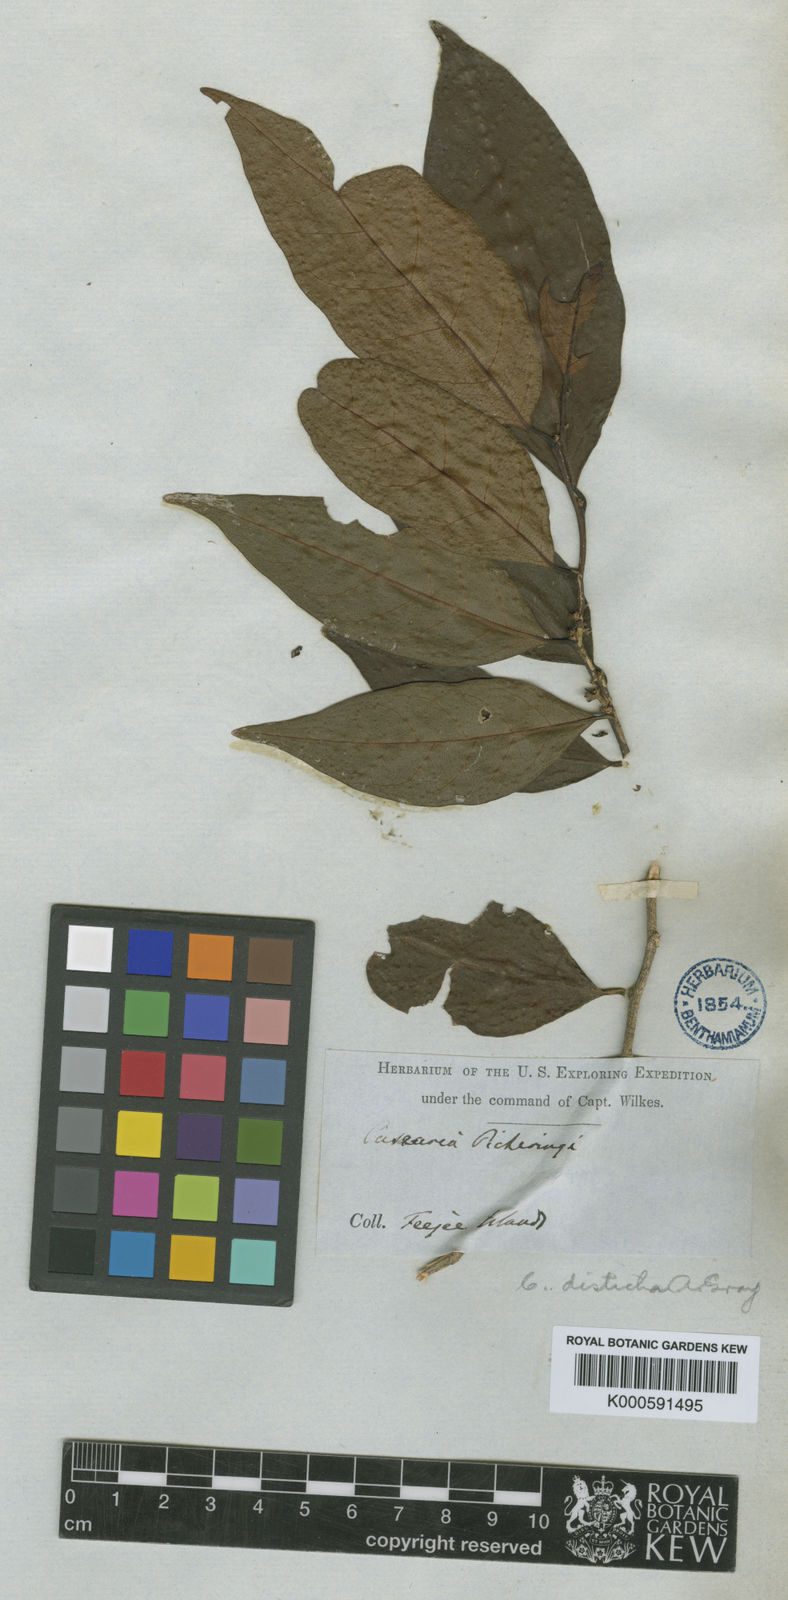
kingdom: Plantae
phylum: Tracheophyta
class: Magnoliopsida
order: Malpighiales
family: Salicaceae
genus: Casearia
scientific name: Casearia richii
